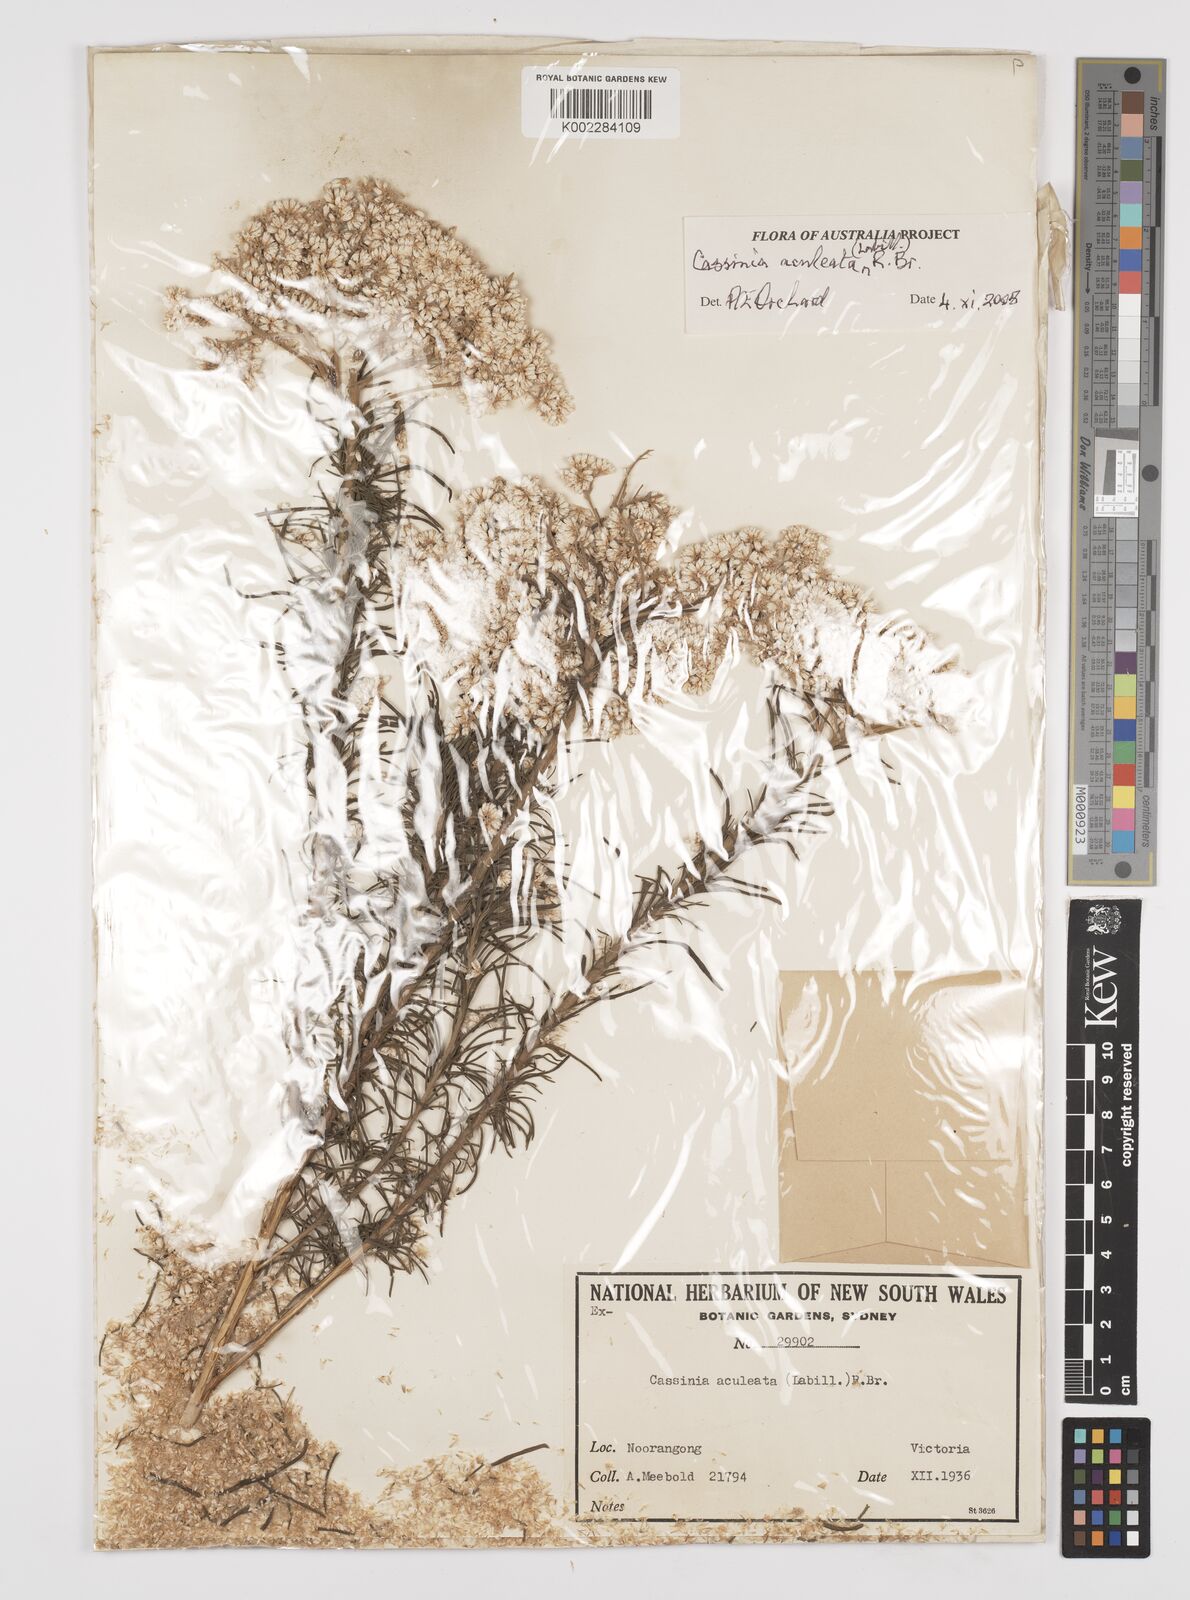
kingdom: Plantae
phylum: Tracheophyta
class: Magnoliopsida
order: Asterales
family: Asteraceae
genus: Cassinia
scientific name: Cassinia aculeata
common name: Australian tauhinu
